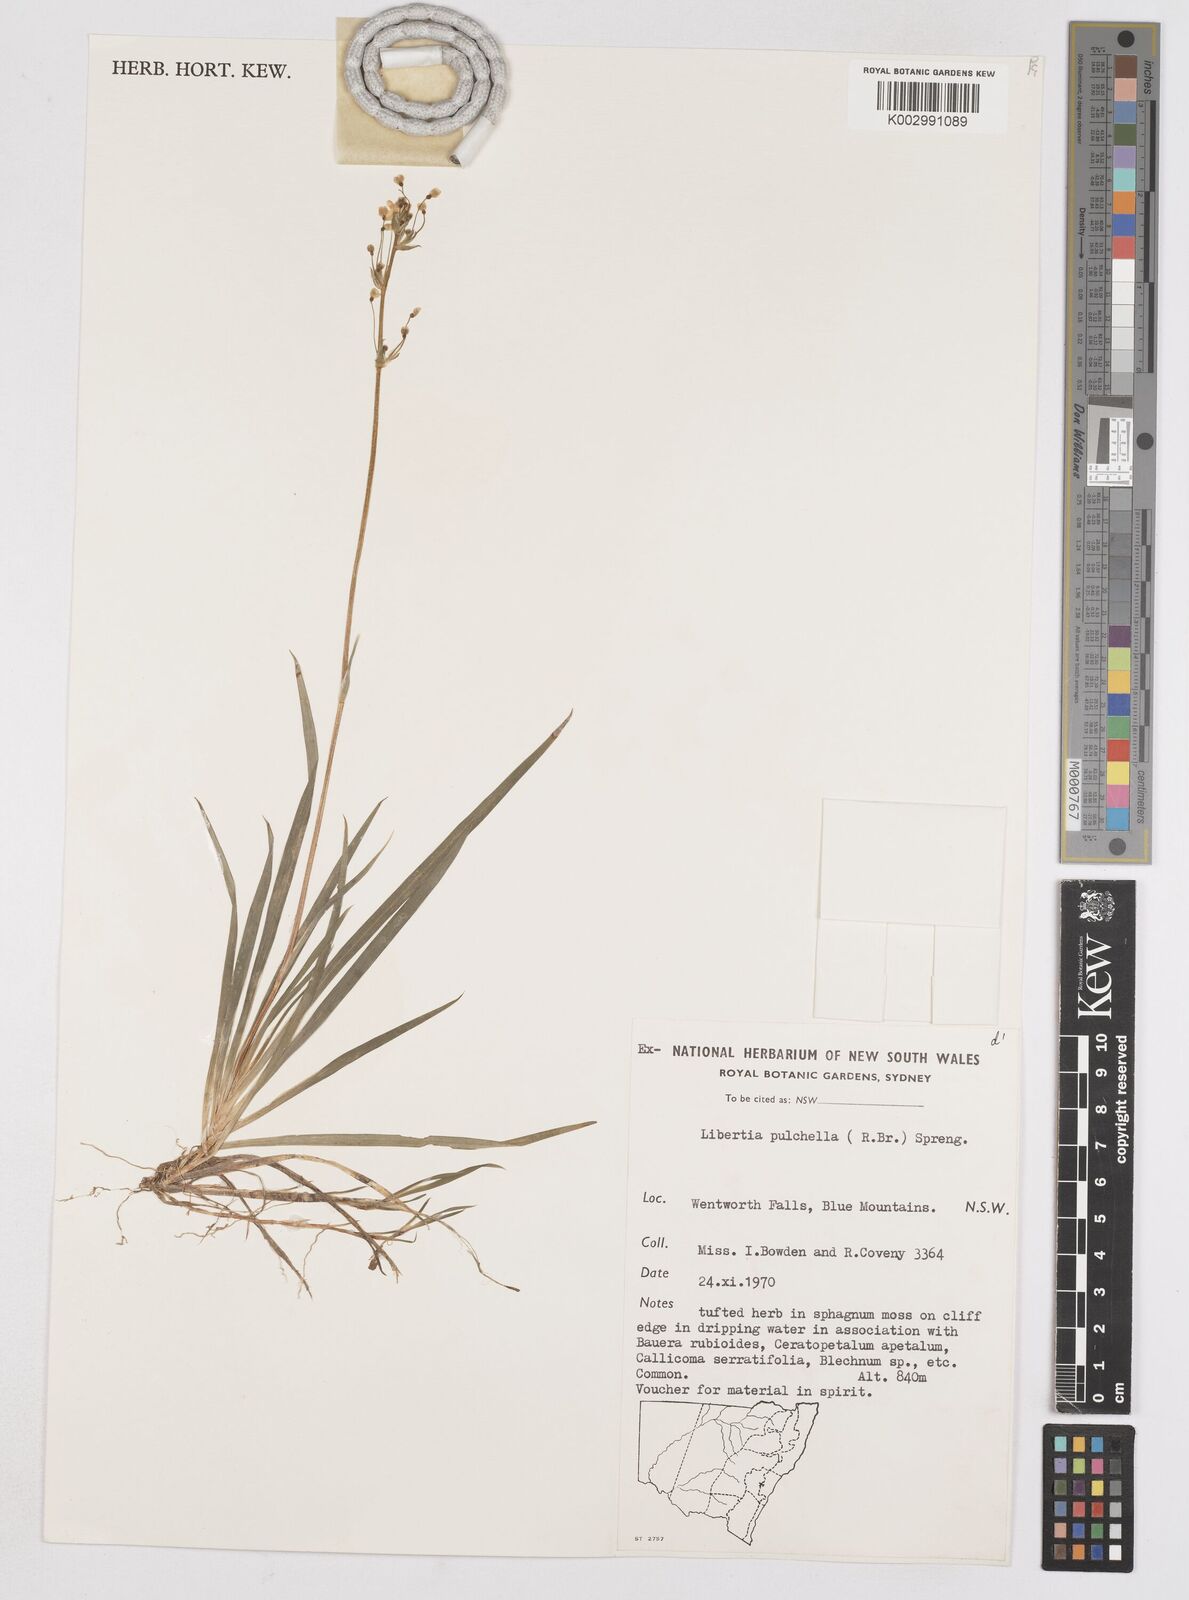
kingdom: Plantae
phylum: Tracheophyta
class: Liliopsida
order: Asparagales
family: Iridaceae
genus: Libertia
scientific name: Libertia pulchella
